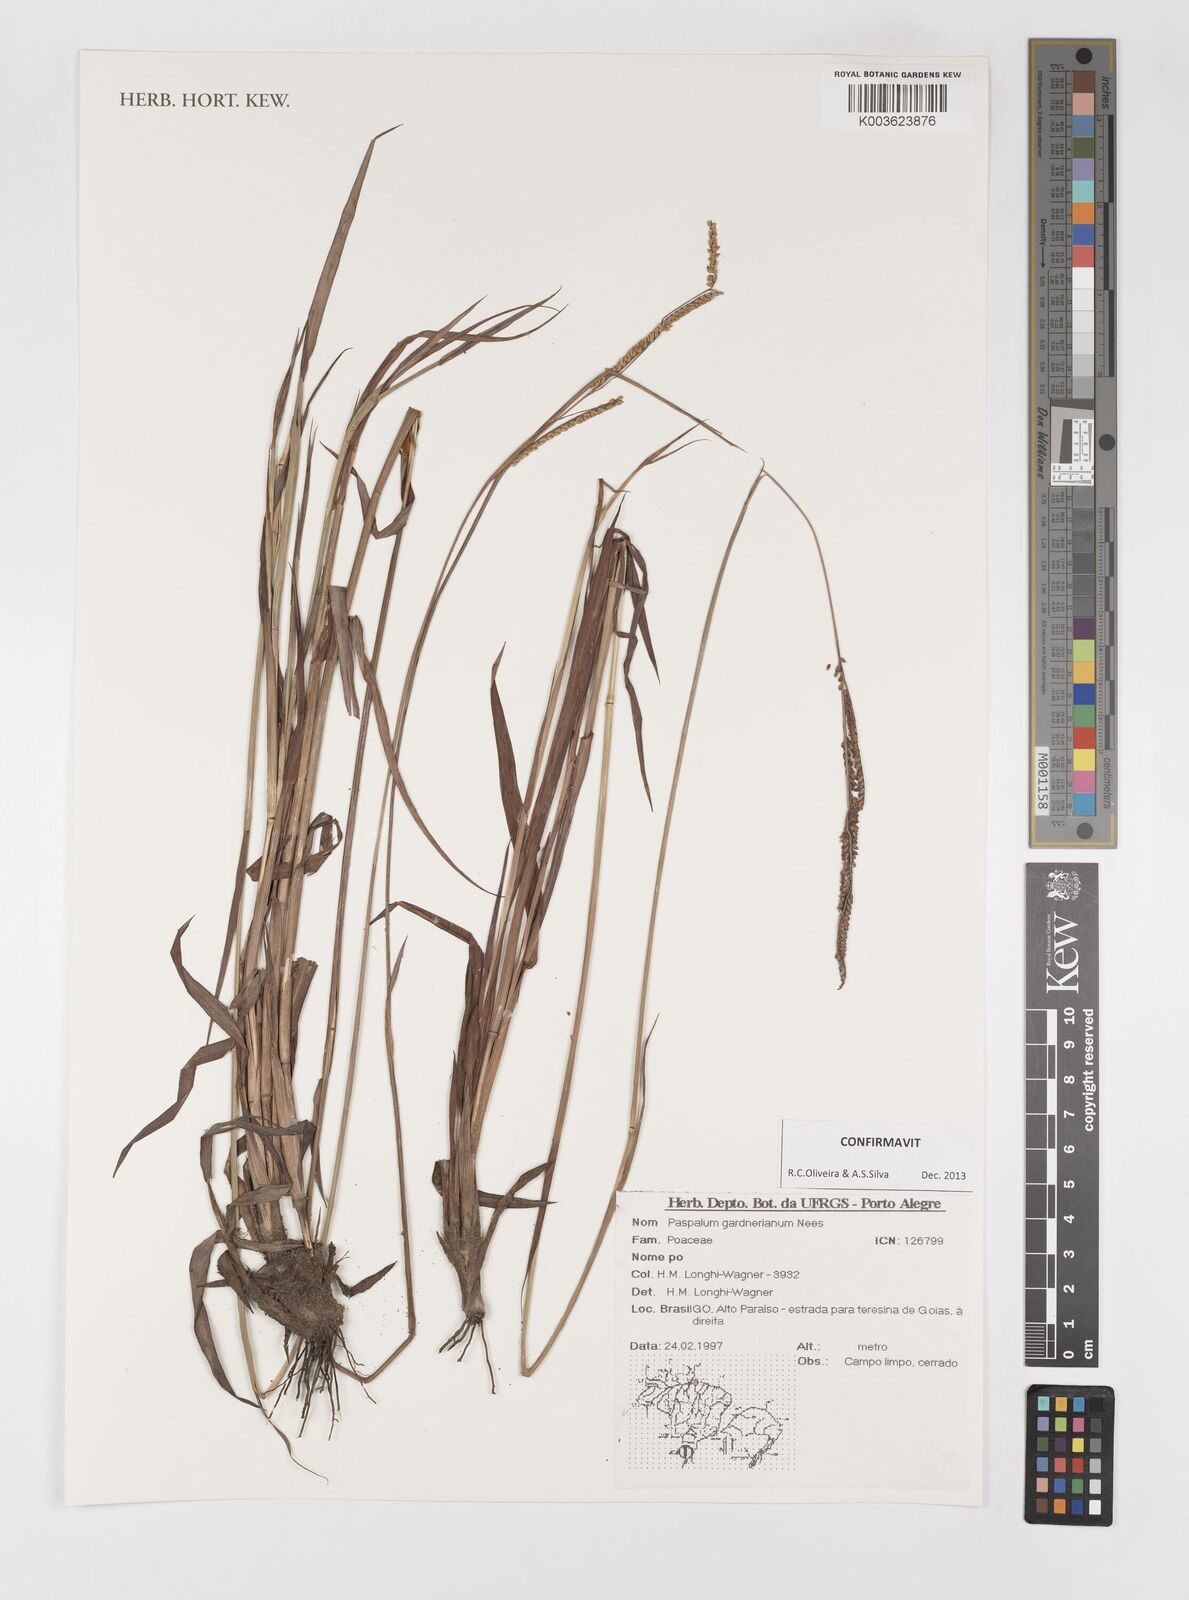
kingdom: Plantae
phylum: Tracheophyta
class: Liliopsida
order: Poales
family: Poaceae
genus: Paspalum
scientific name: Paspalum gardnerianum
